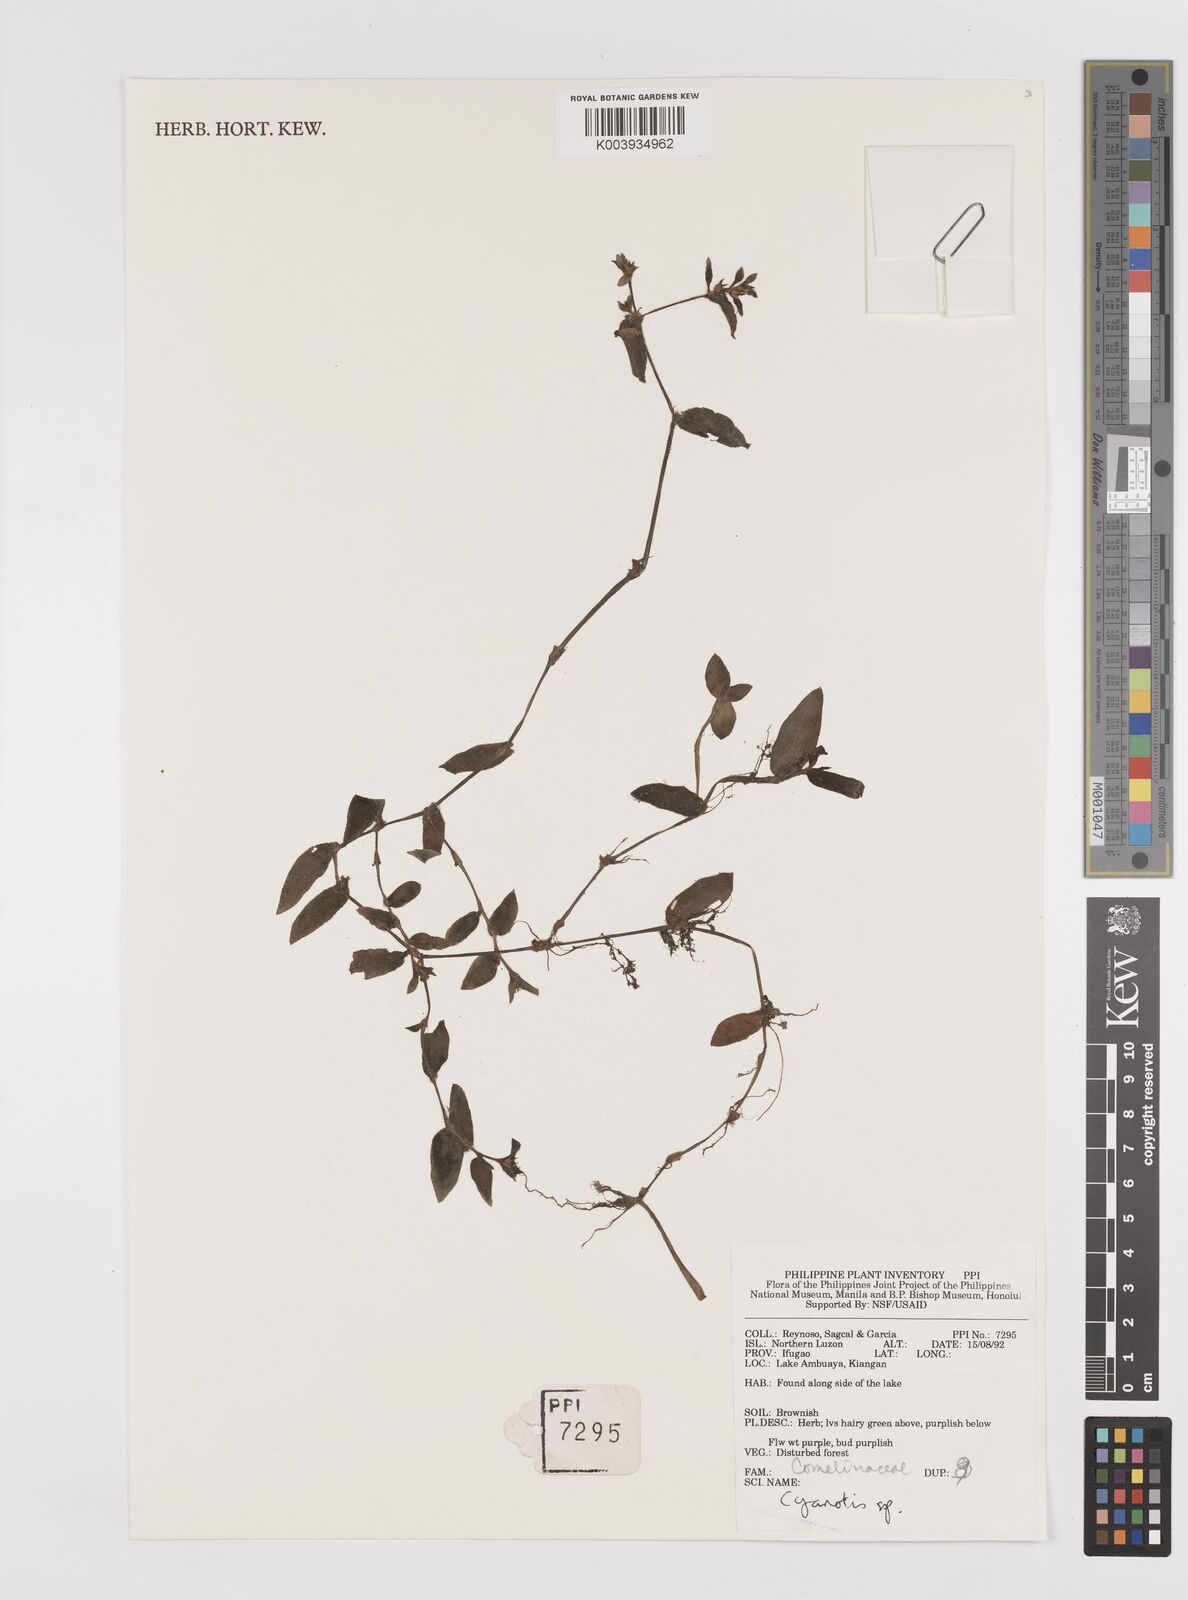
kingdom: Plantae
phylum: Tracheophyta
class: Liliopsida
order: Commelinales
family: Commelinaceae
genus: Cyanotis
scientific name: Cyanotis
